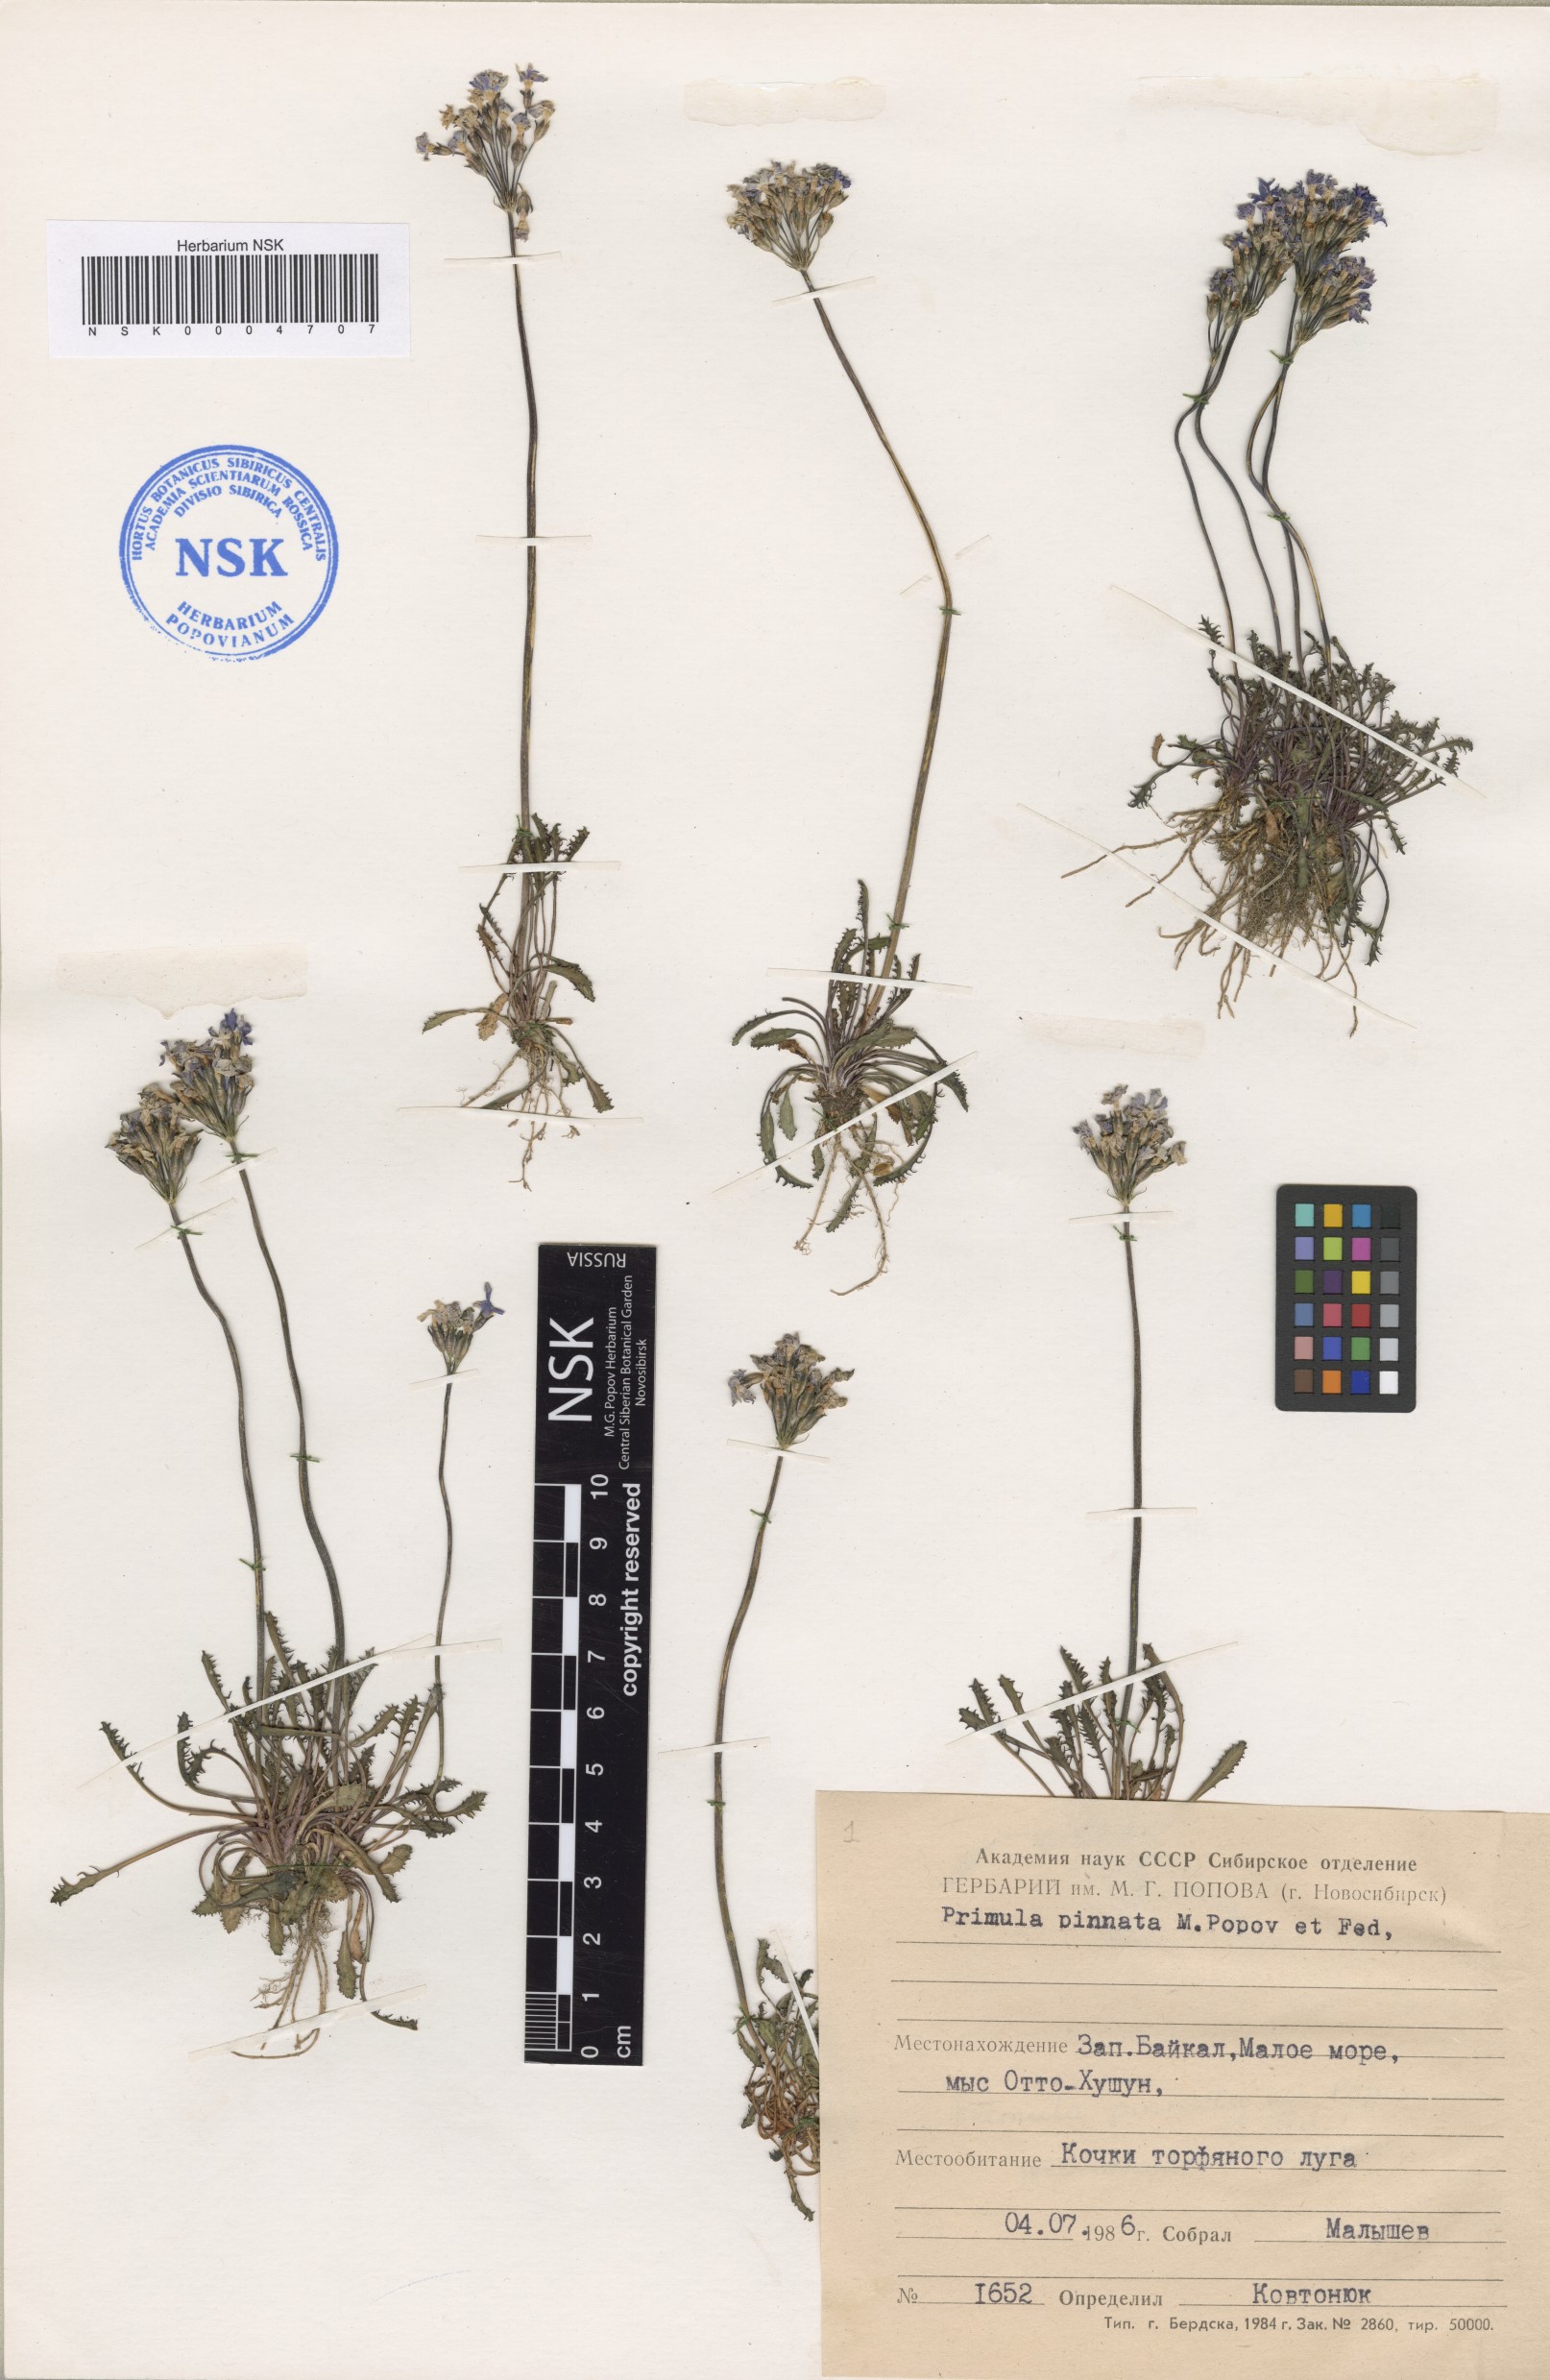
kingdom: Plantae
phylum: Tracheophyta
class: Magnoliopsida
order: Ericales
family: Primulaceae
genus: Primula
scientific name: Primula pinnata
